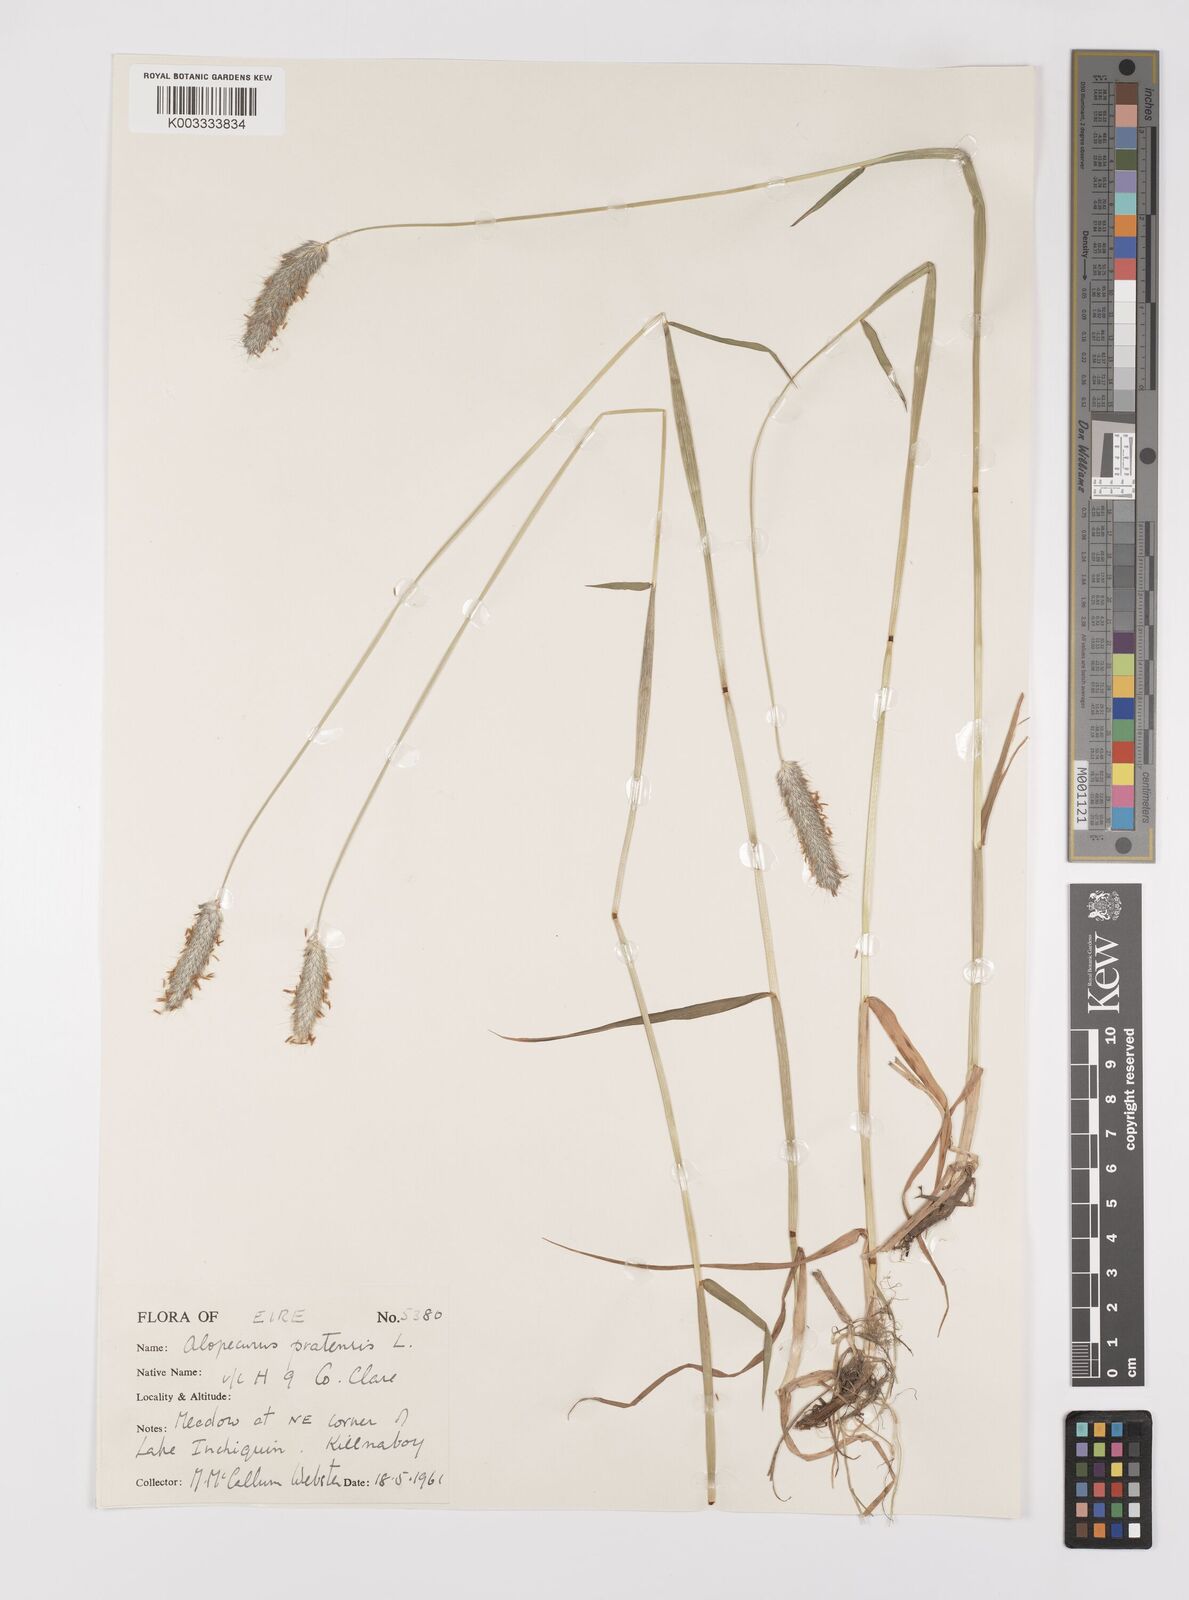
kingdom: Plantae
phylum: Tracheophyta
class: Liliopsida
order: Poales
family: Poaceae
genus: Alopecurus
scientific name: Alopecurus pratensis
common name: Meadow foxtail
